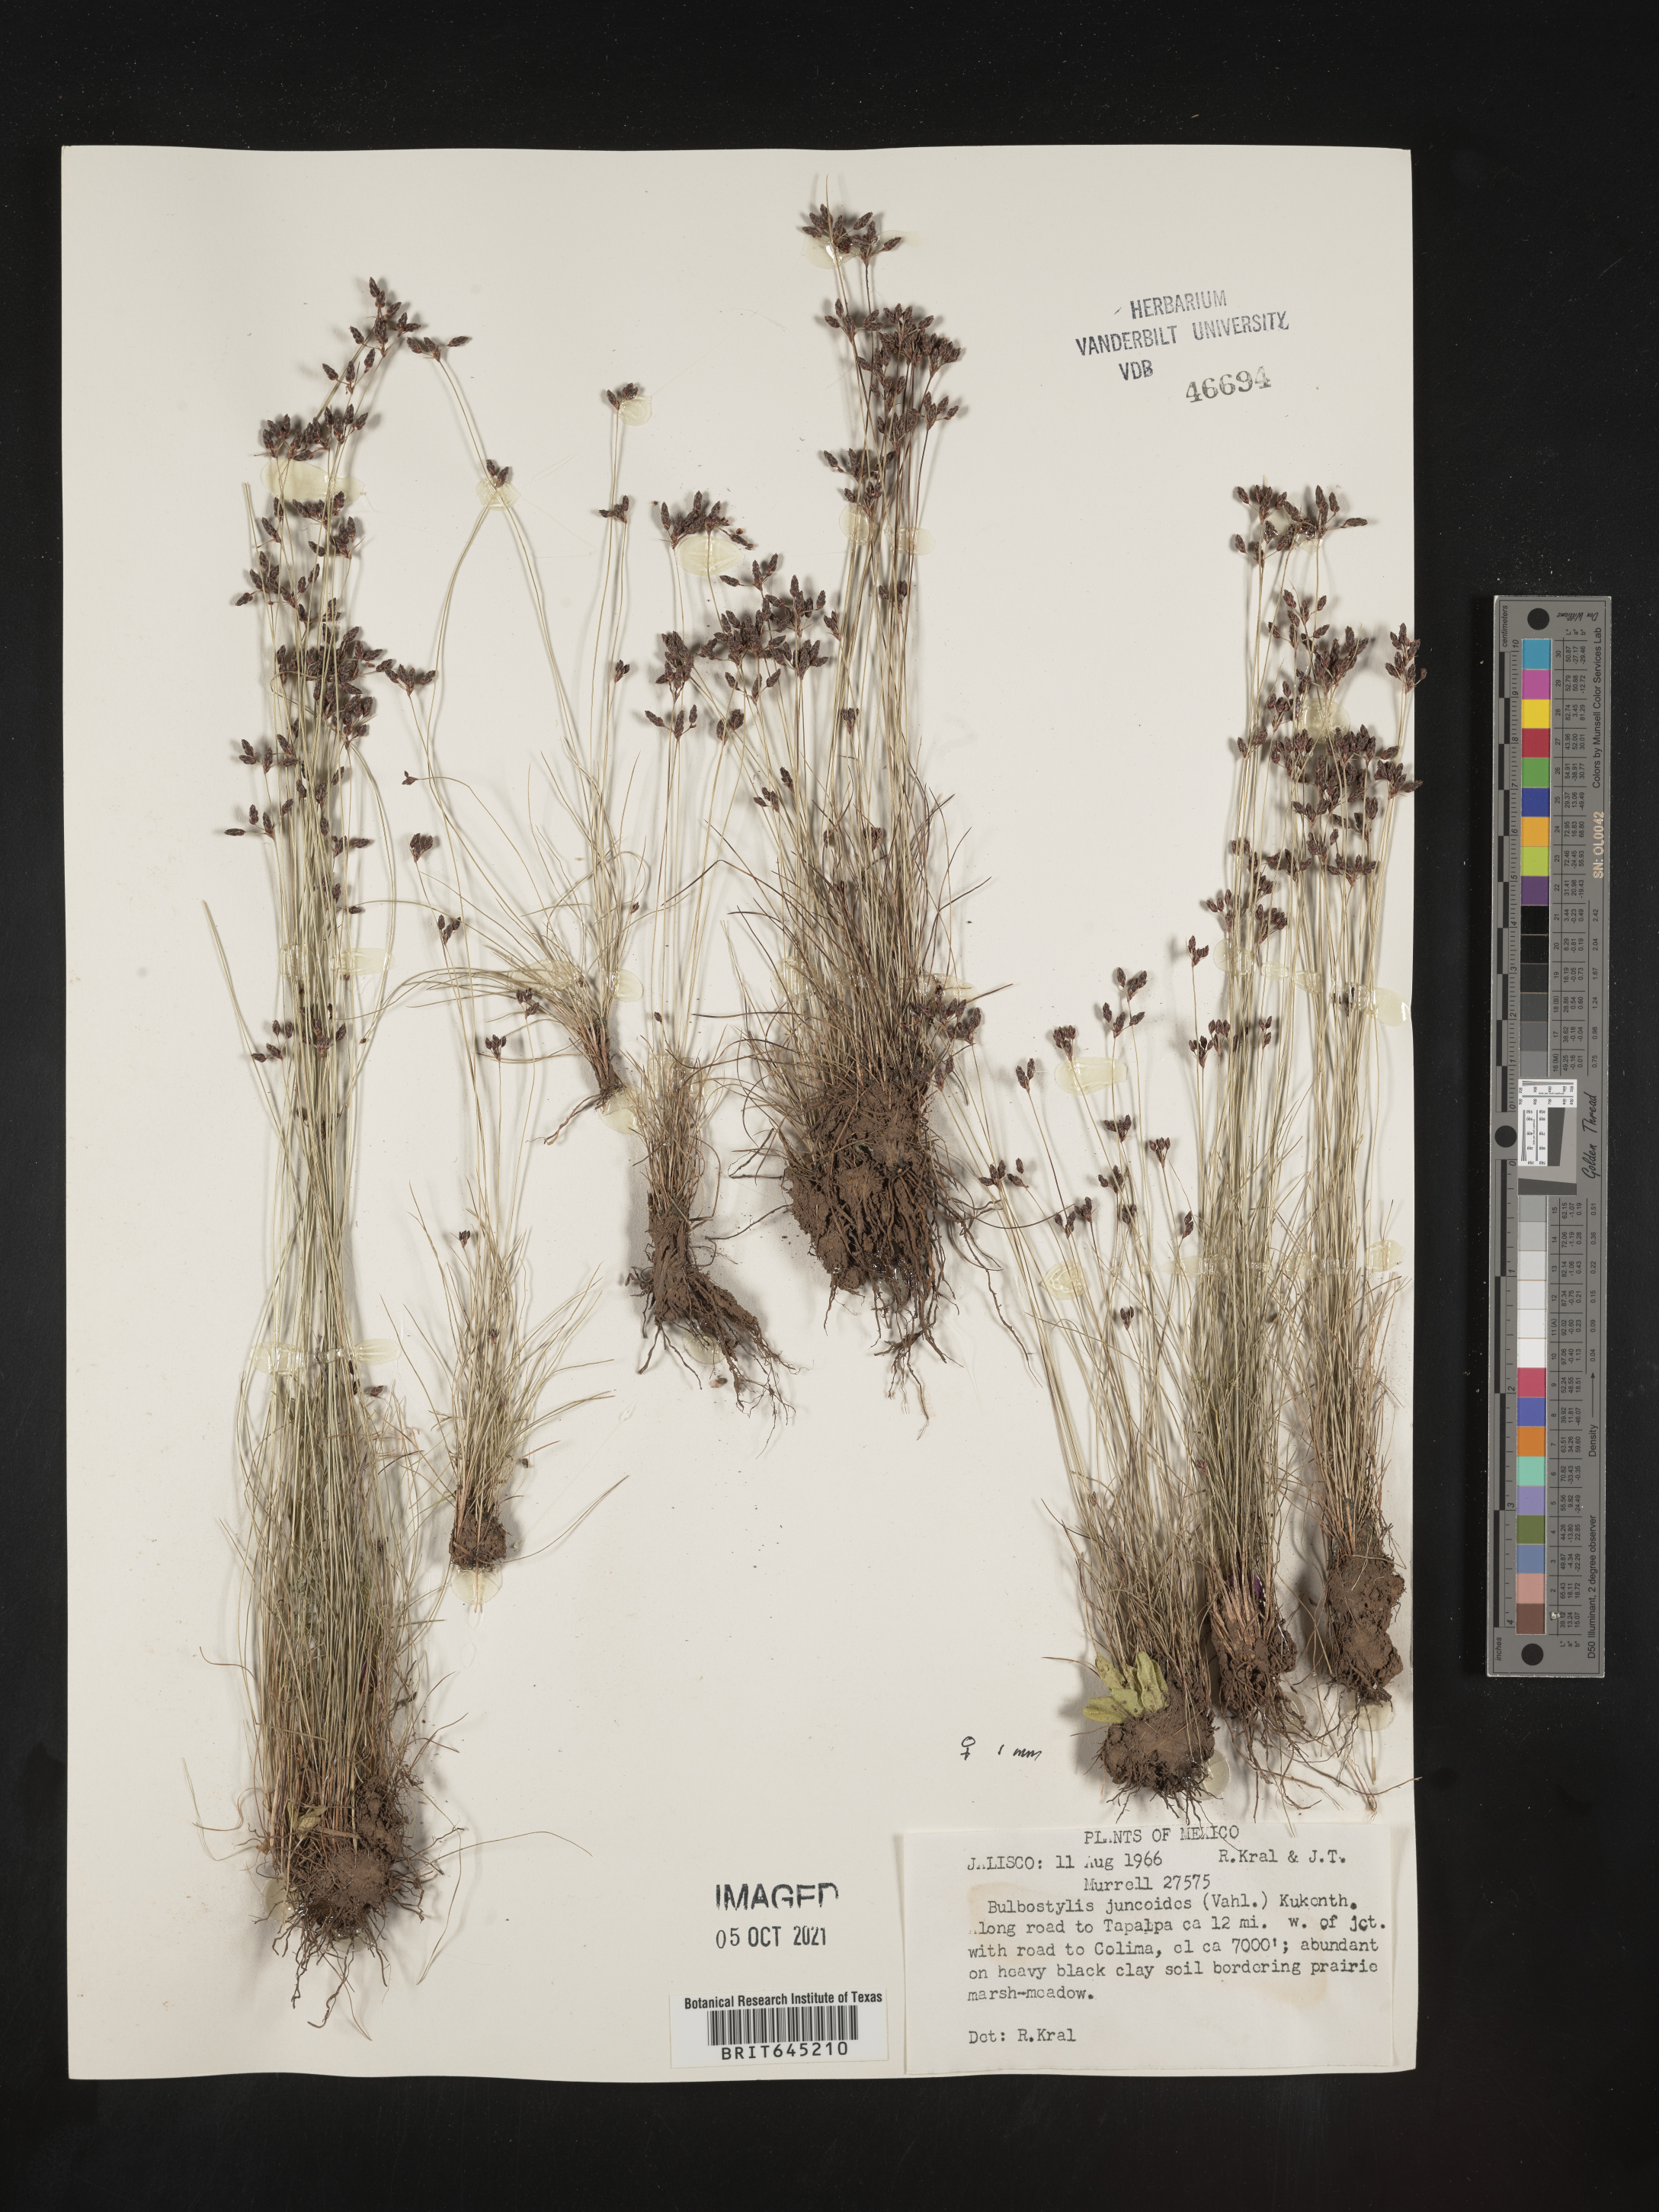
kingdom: Plantae
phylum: Tracheophyta
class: Liliopsida
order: Poales
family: Cyperaceae
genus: Bulbostylis
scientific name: Bulbostylis juncoides
